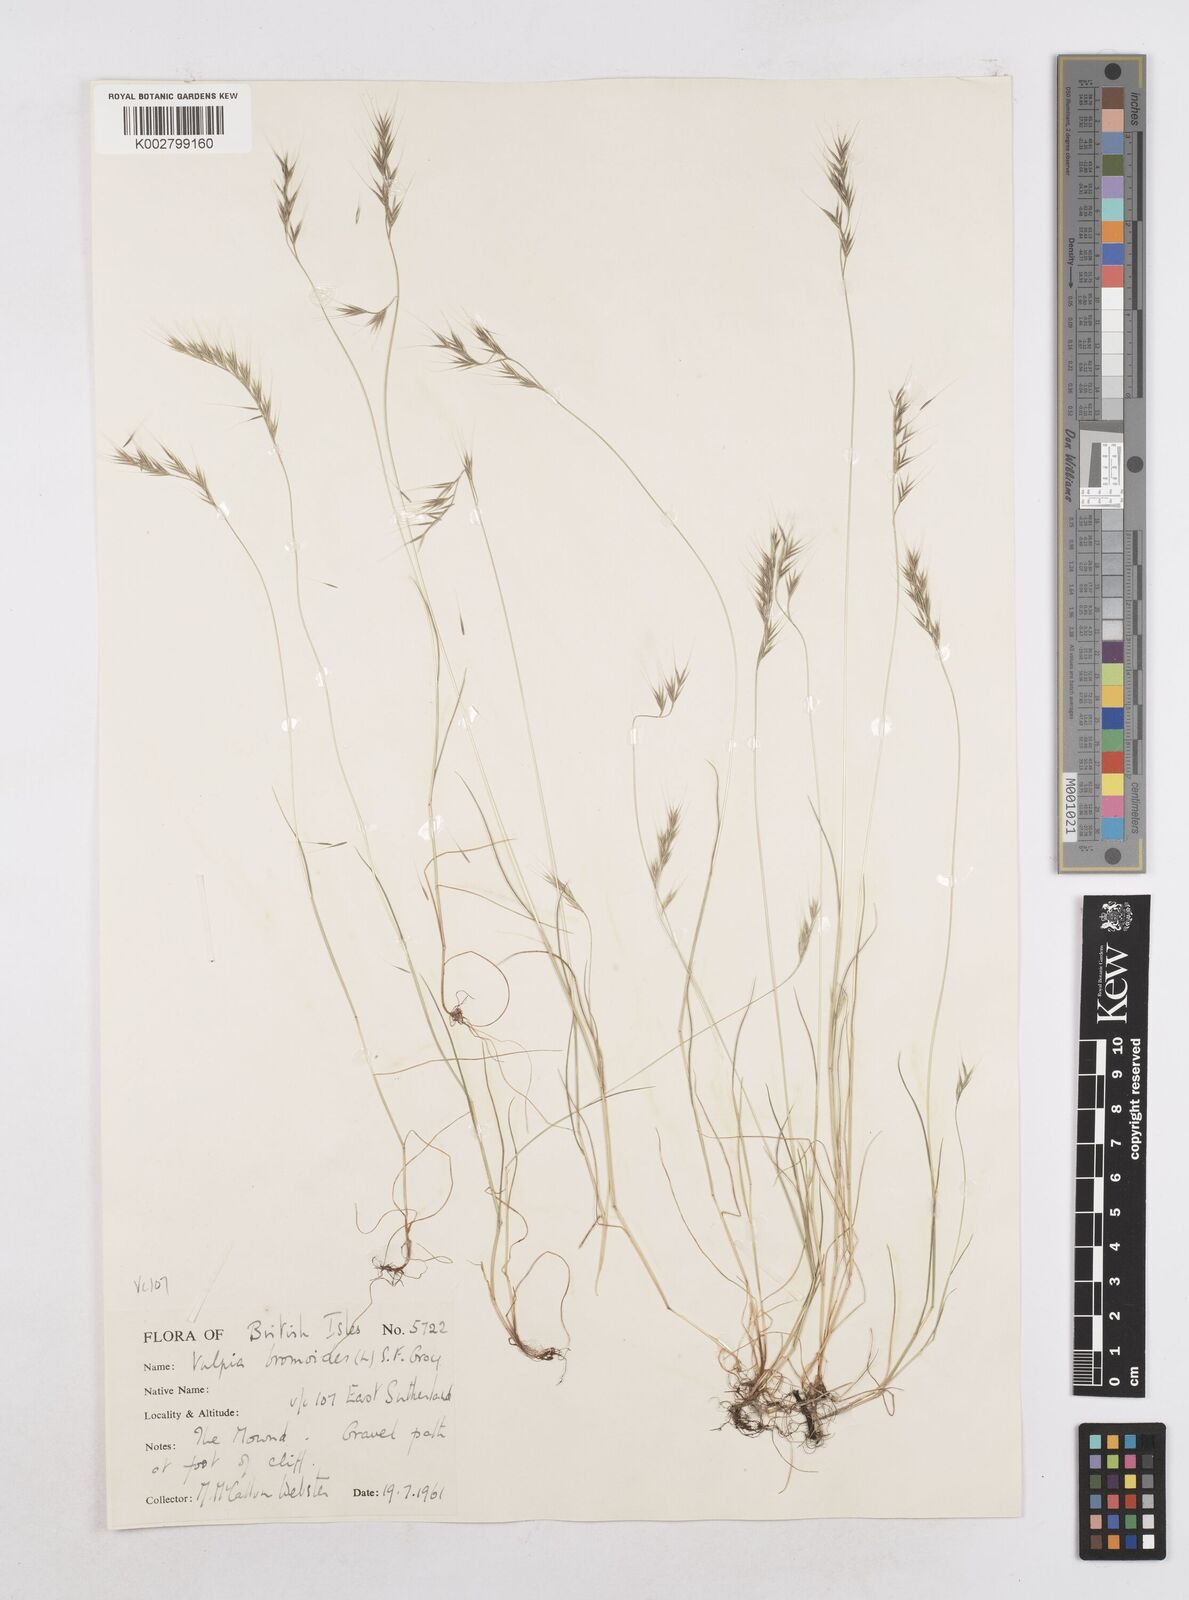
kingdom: Plantae
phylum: Tracheophyta
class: Liliopsida
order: Poales
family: Poaceae
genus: Festuca
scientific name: Festuca bromoides
